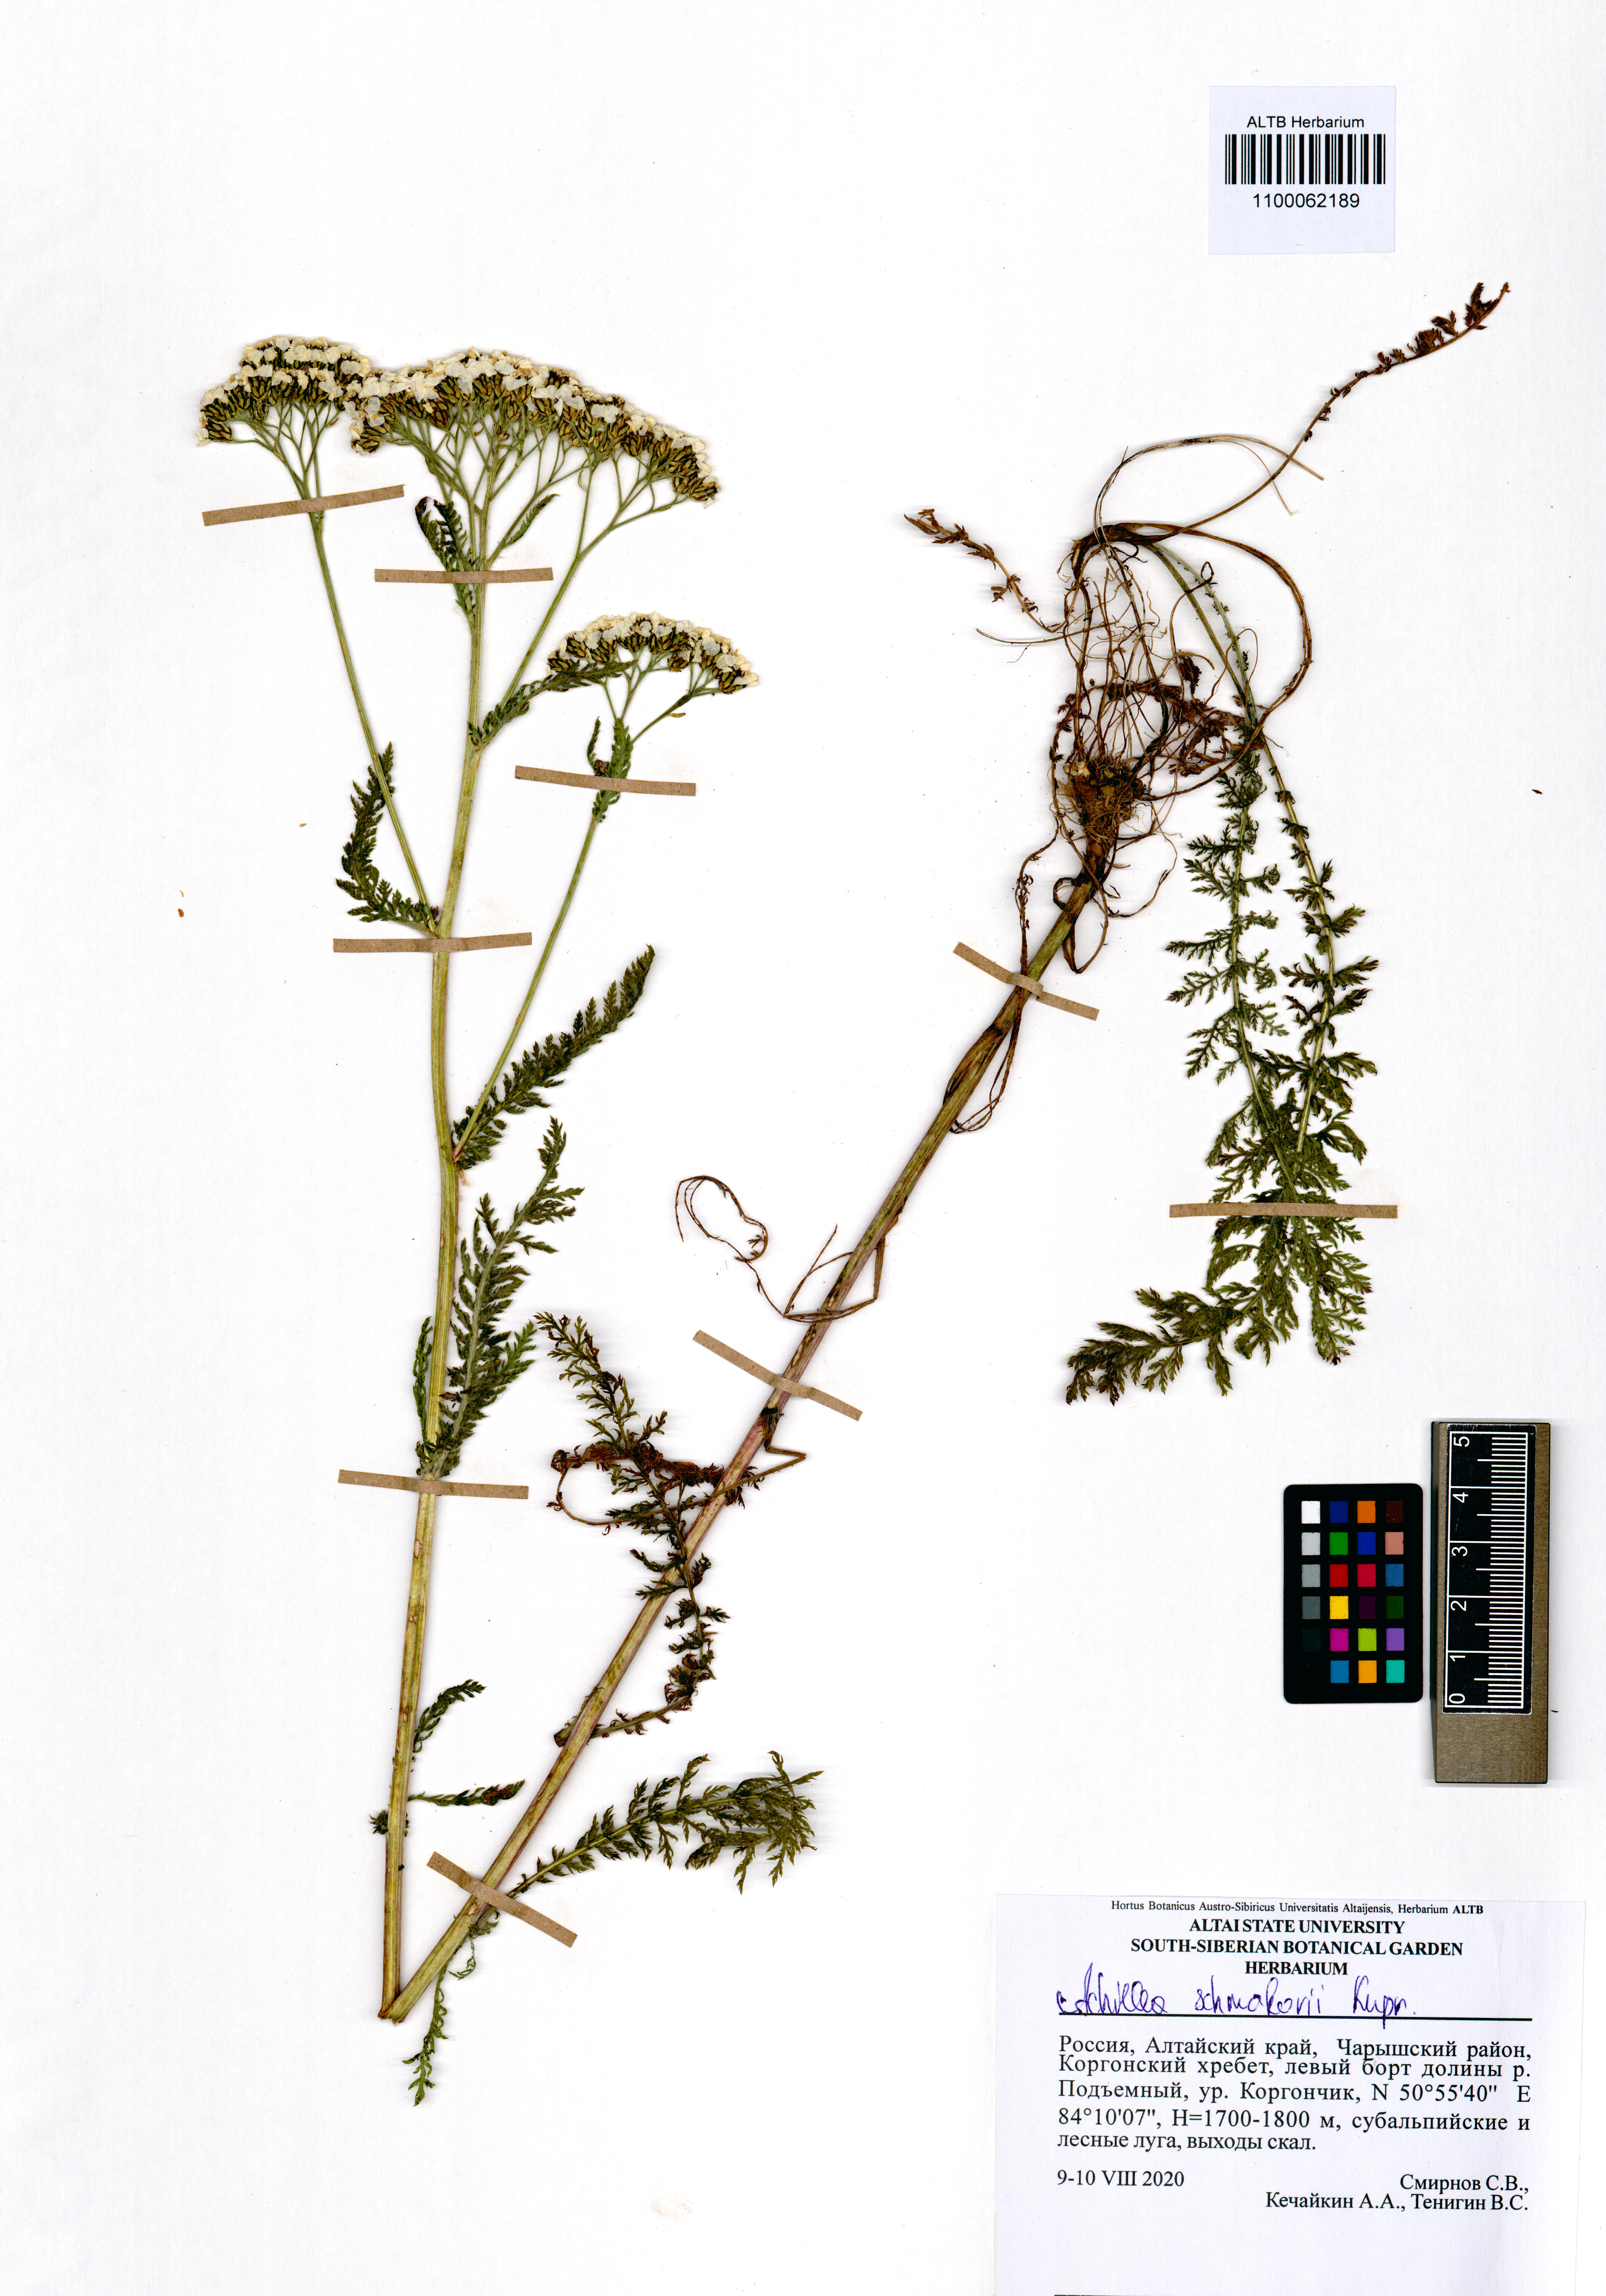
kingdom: Plantae
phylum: Tracheophyta
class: Magnoliopsida
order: Asterales
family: Asteraceae
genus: Achillea
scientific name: Achillea schmakovii
